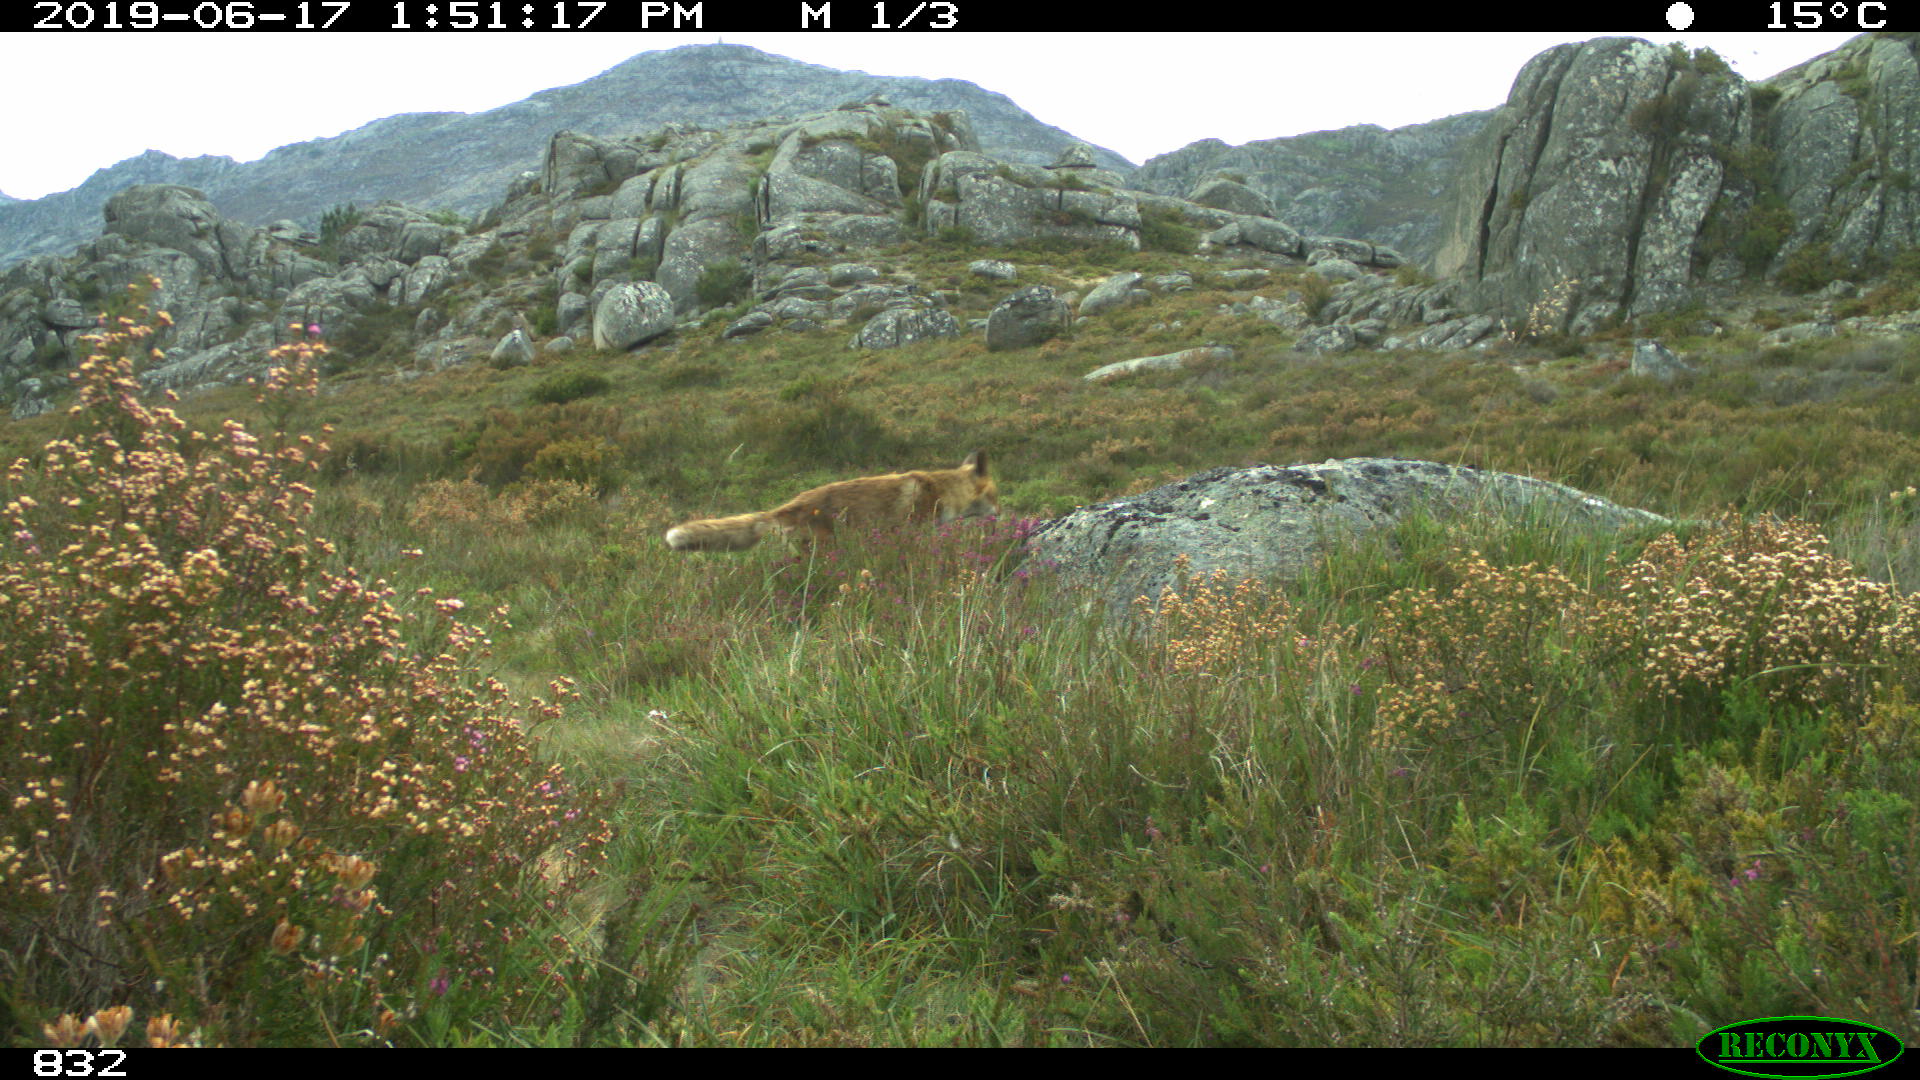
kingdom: Animalia
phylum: Chordata
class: Mammalia
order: Carnivora
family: Canidae
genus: Vulpes
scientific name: Vulpes vulpes
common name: Red fox
